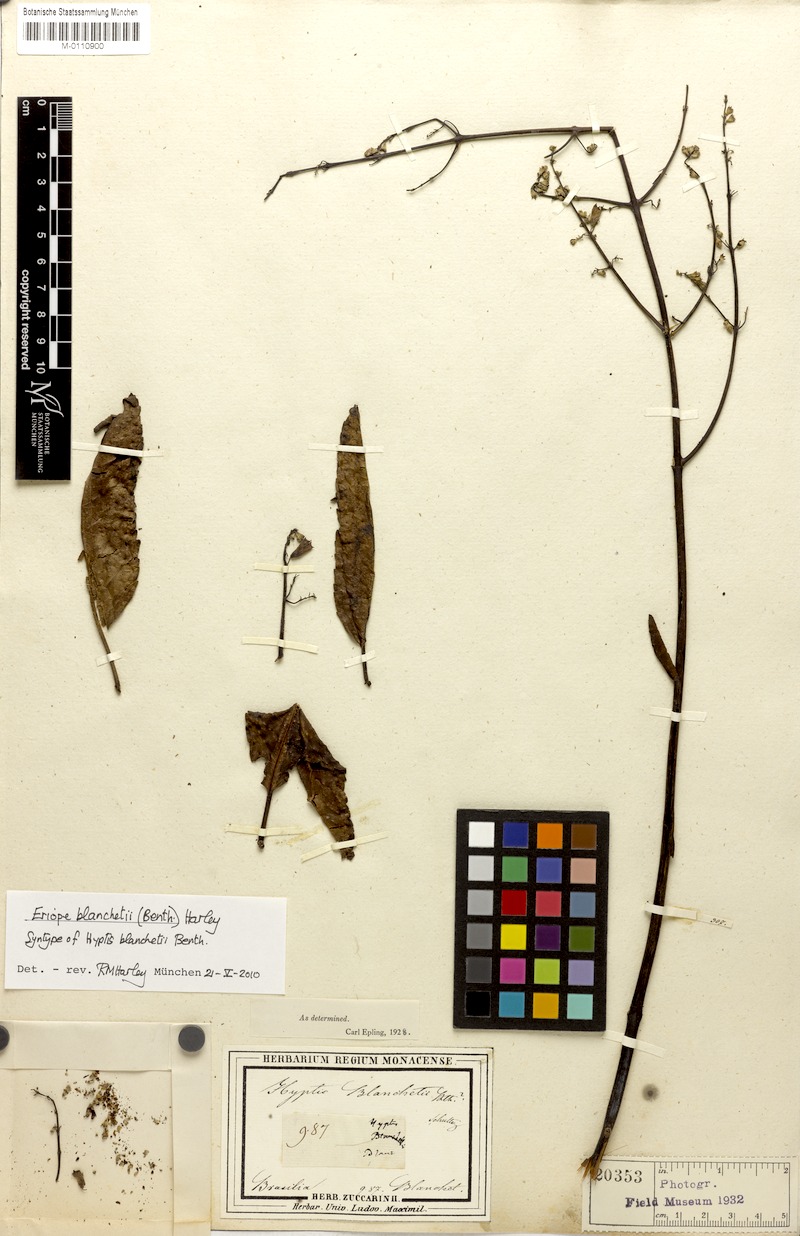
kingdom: Plantae
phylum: Tracheophyta
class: Magnoliopsida
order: Lamiales
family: Lamiaceae
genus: Eriope
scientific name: Eriope blanchetii
